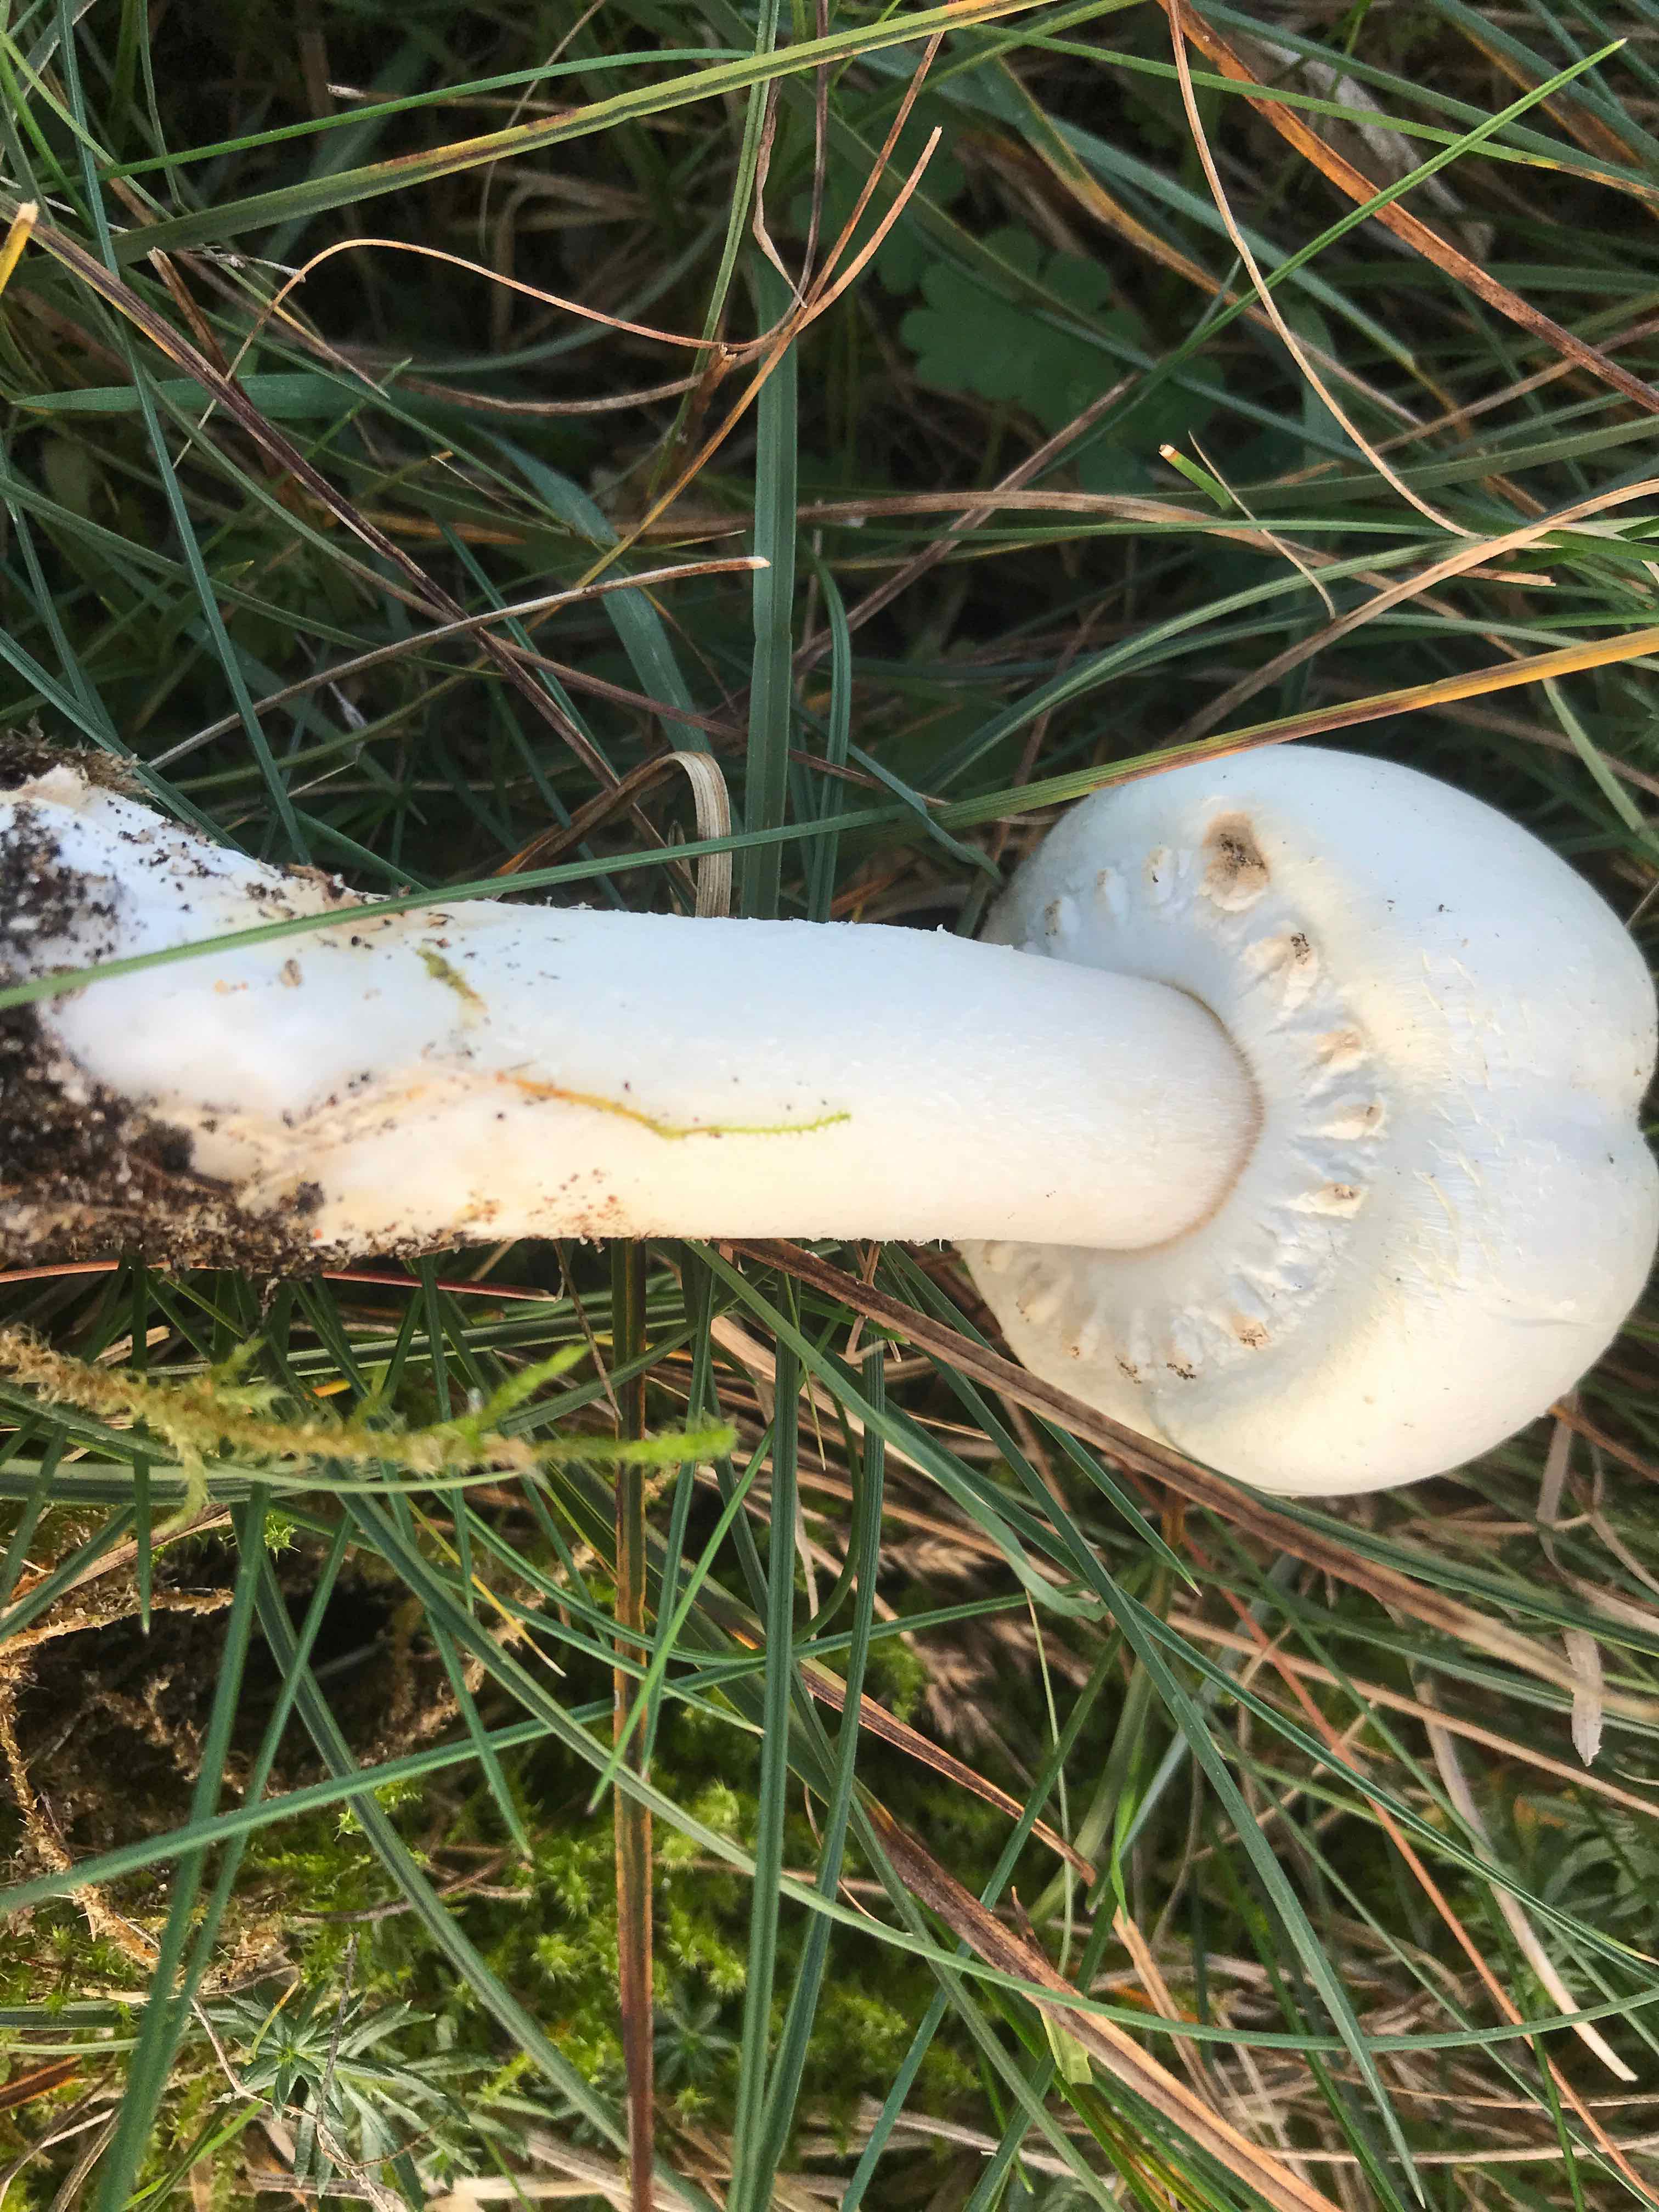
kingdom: Fungi
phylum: Basidiomycota
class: Agaricomycetes
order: Agaricales
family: Agaricaceae
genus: Agaricus
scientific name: Agaricus arvensis
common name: ager-champignon
